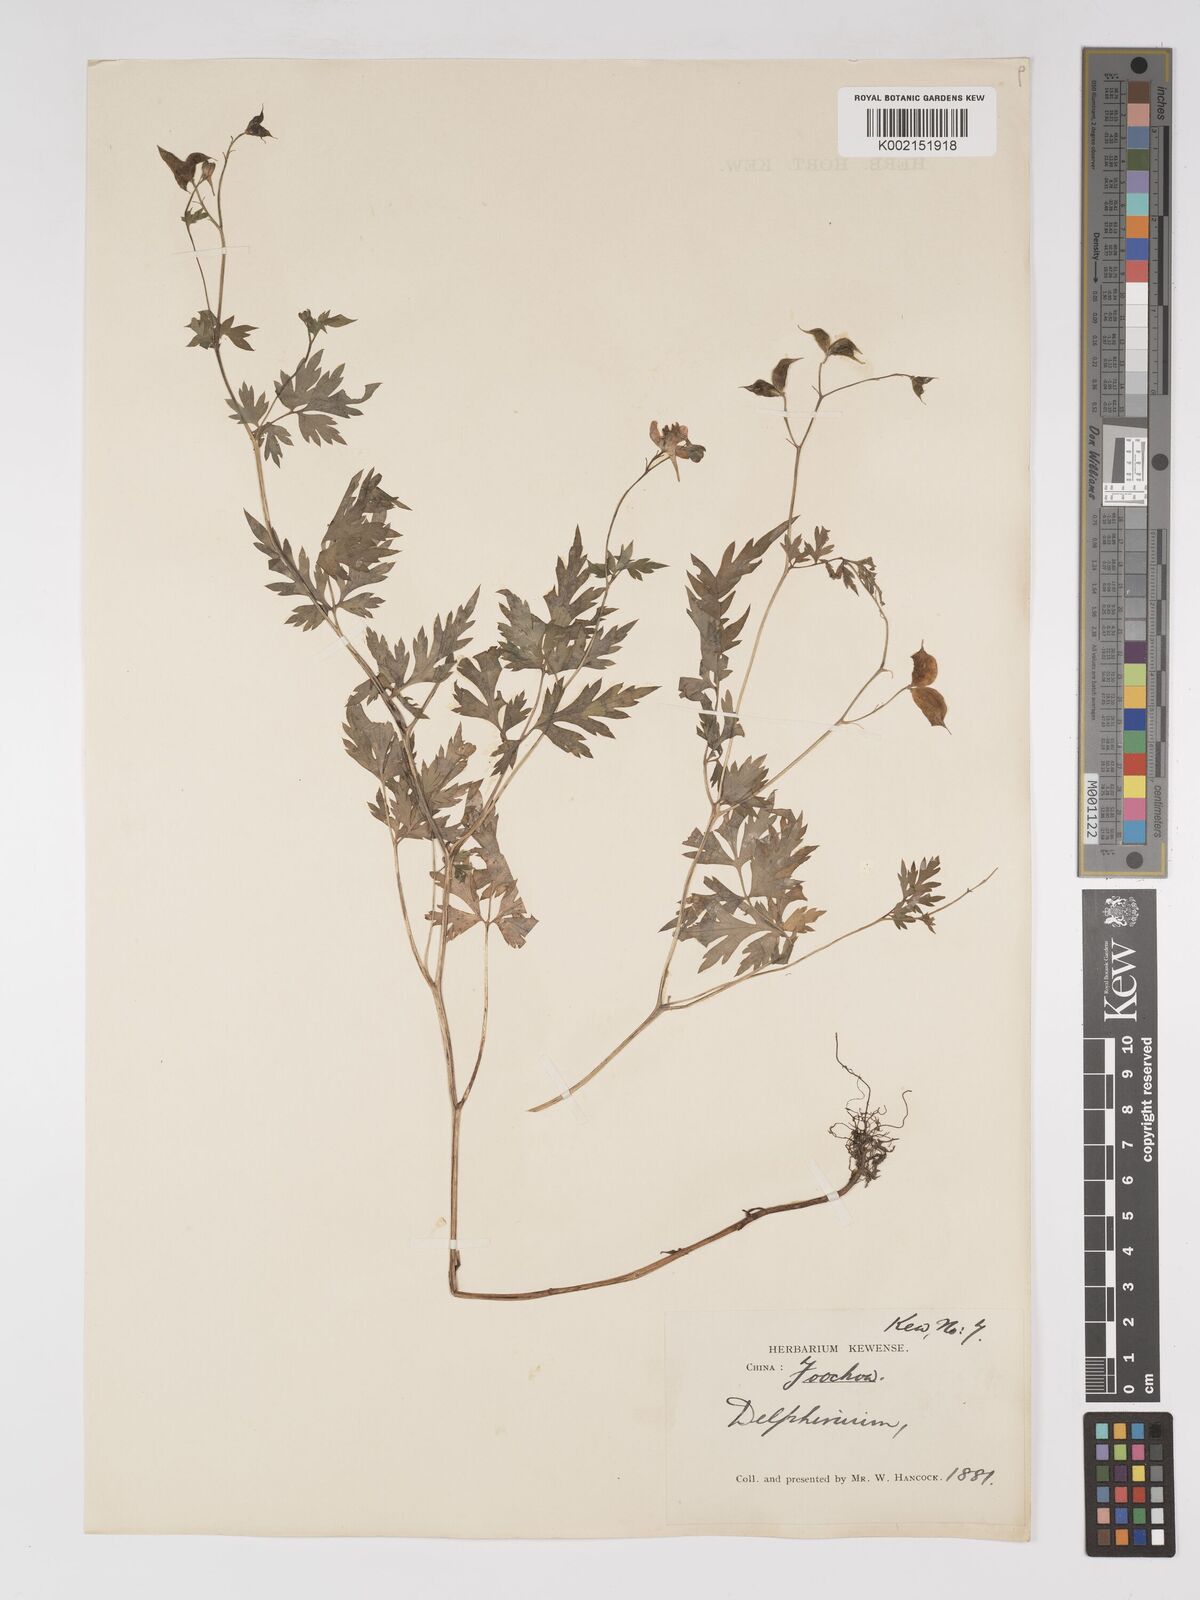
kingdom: Plantae
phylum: Tracheophyta
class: Magnoliopsida
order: Ranunculales
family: Ranunculaceae
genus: Delphinium
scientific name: Delphinium anthriscifolium
